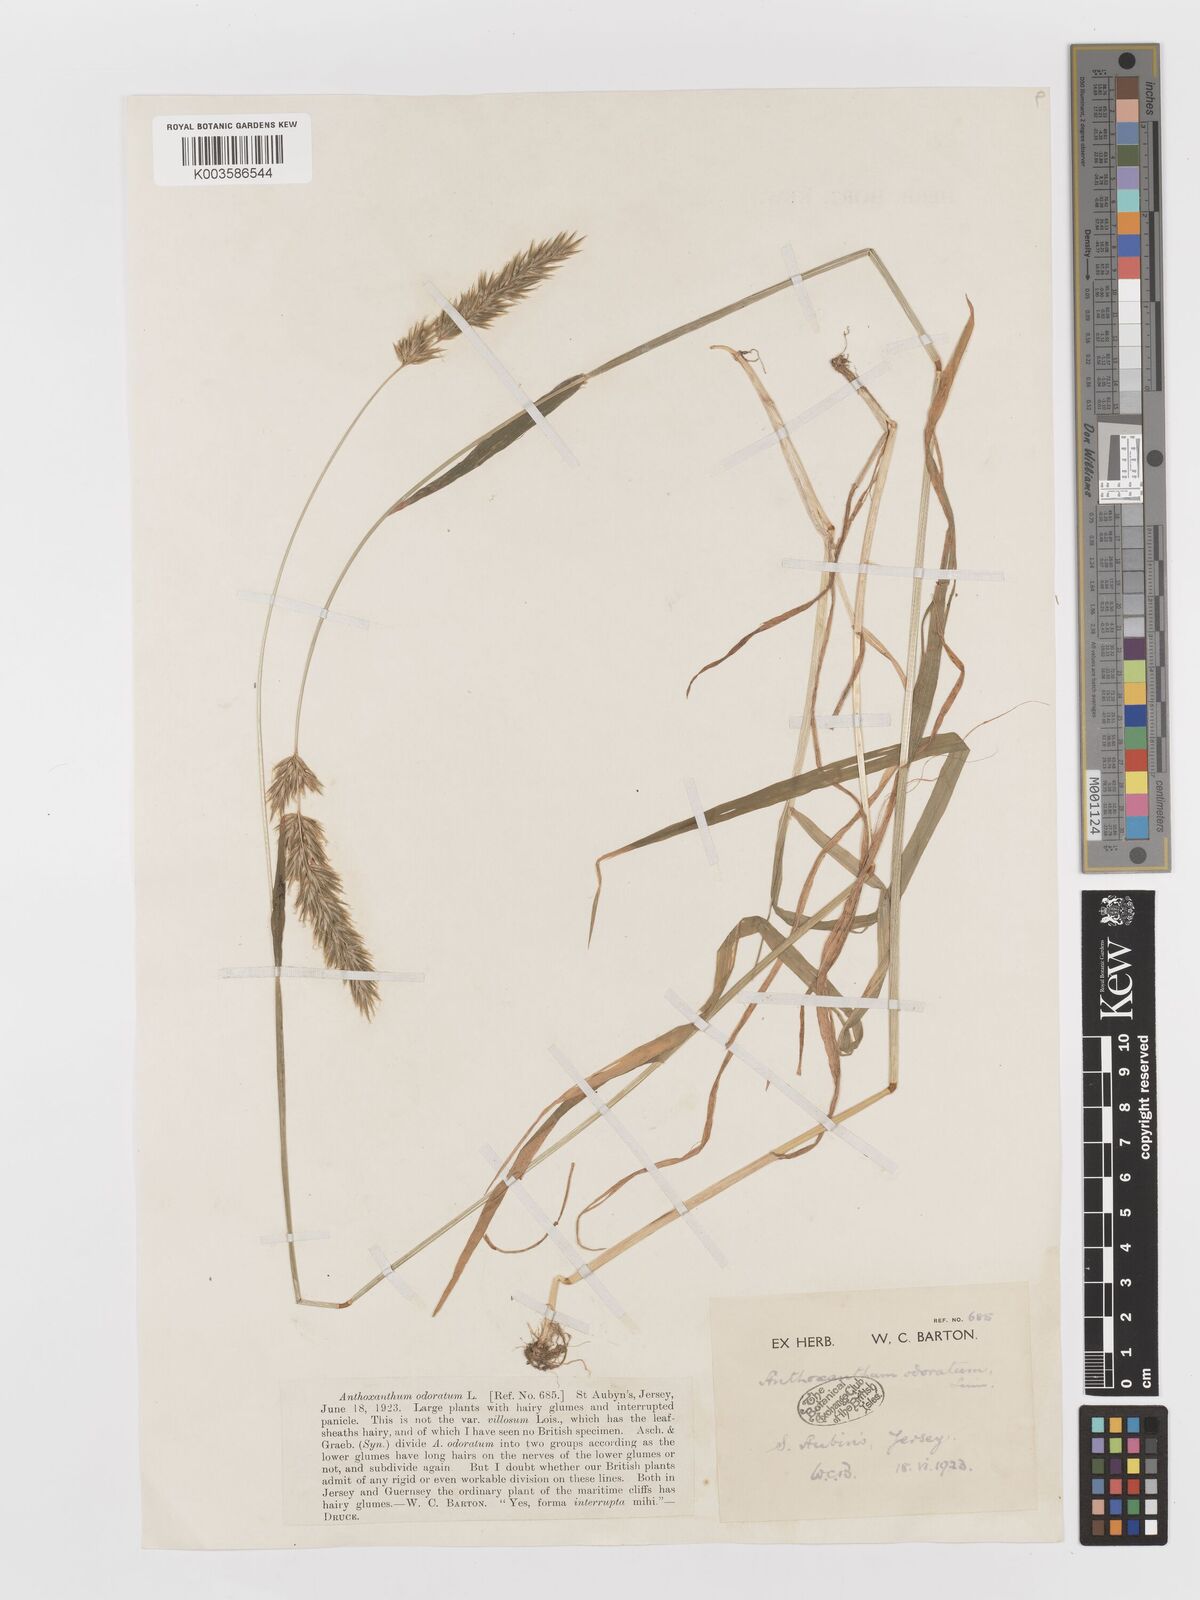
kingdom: Plantae
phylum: Tracheophyta
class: Liliopsida
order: Poales
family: Poaceae
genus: Anthoxanthum
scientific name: Anthoxanthum odoratum
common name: Sweet vernalgrass
